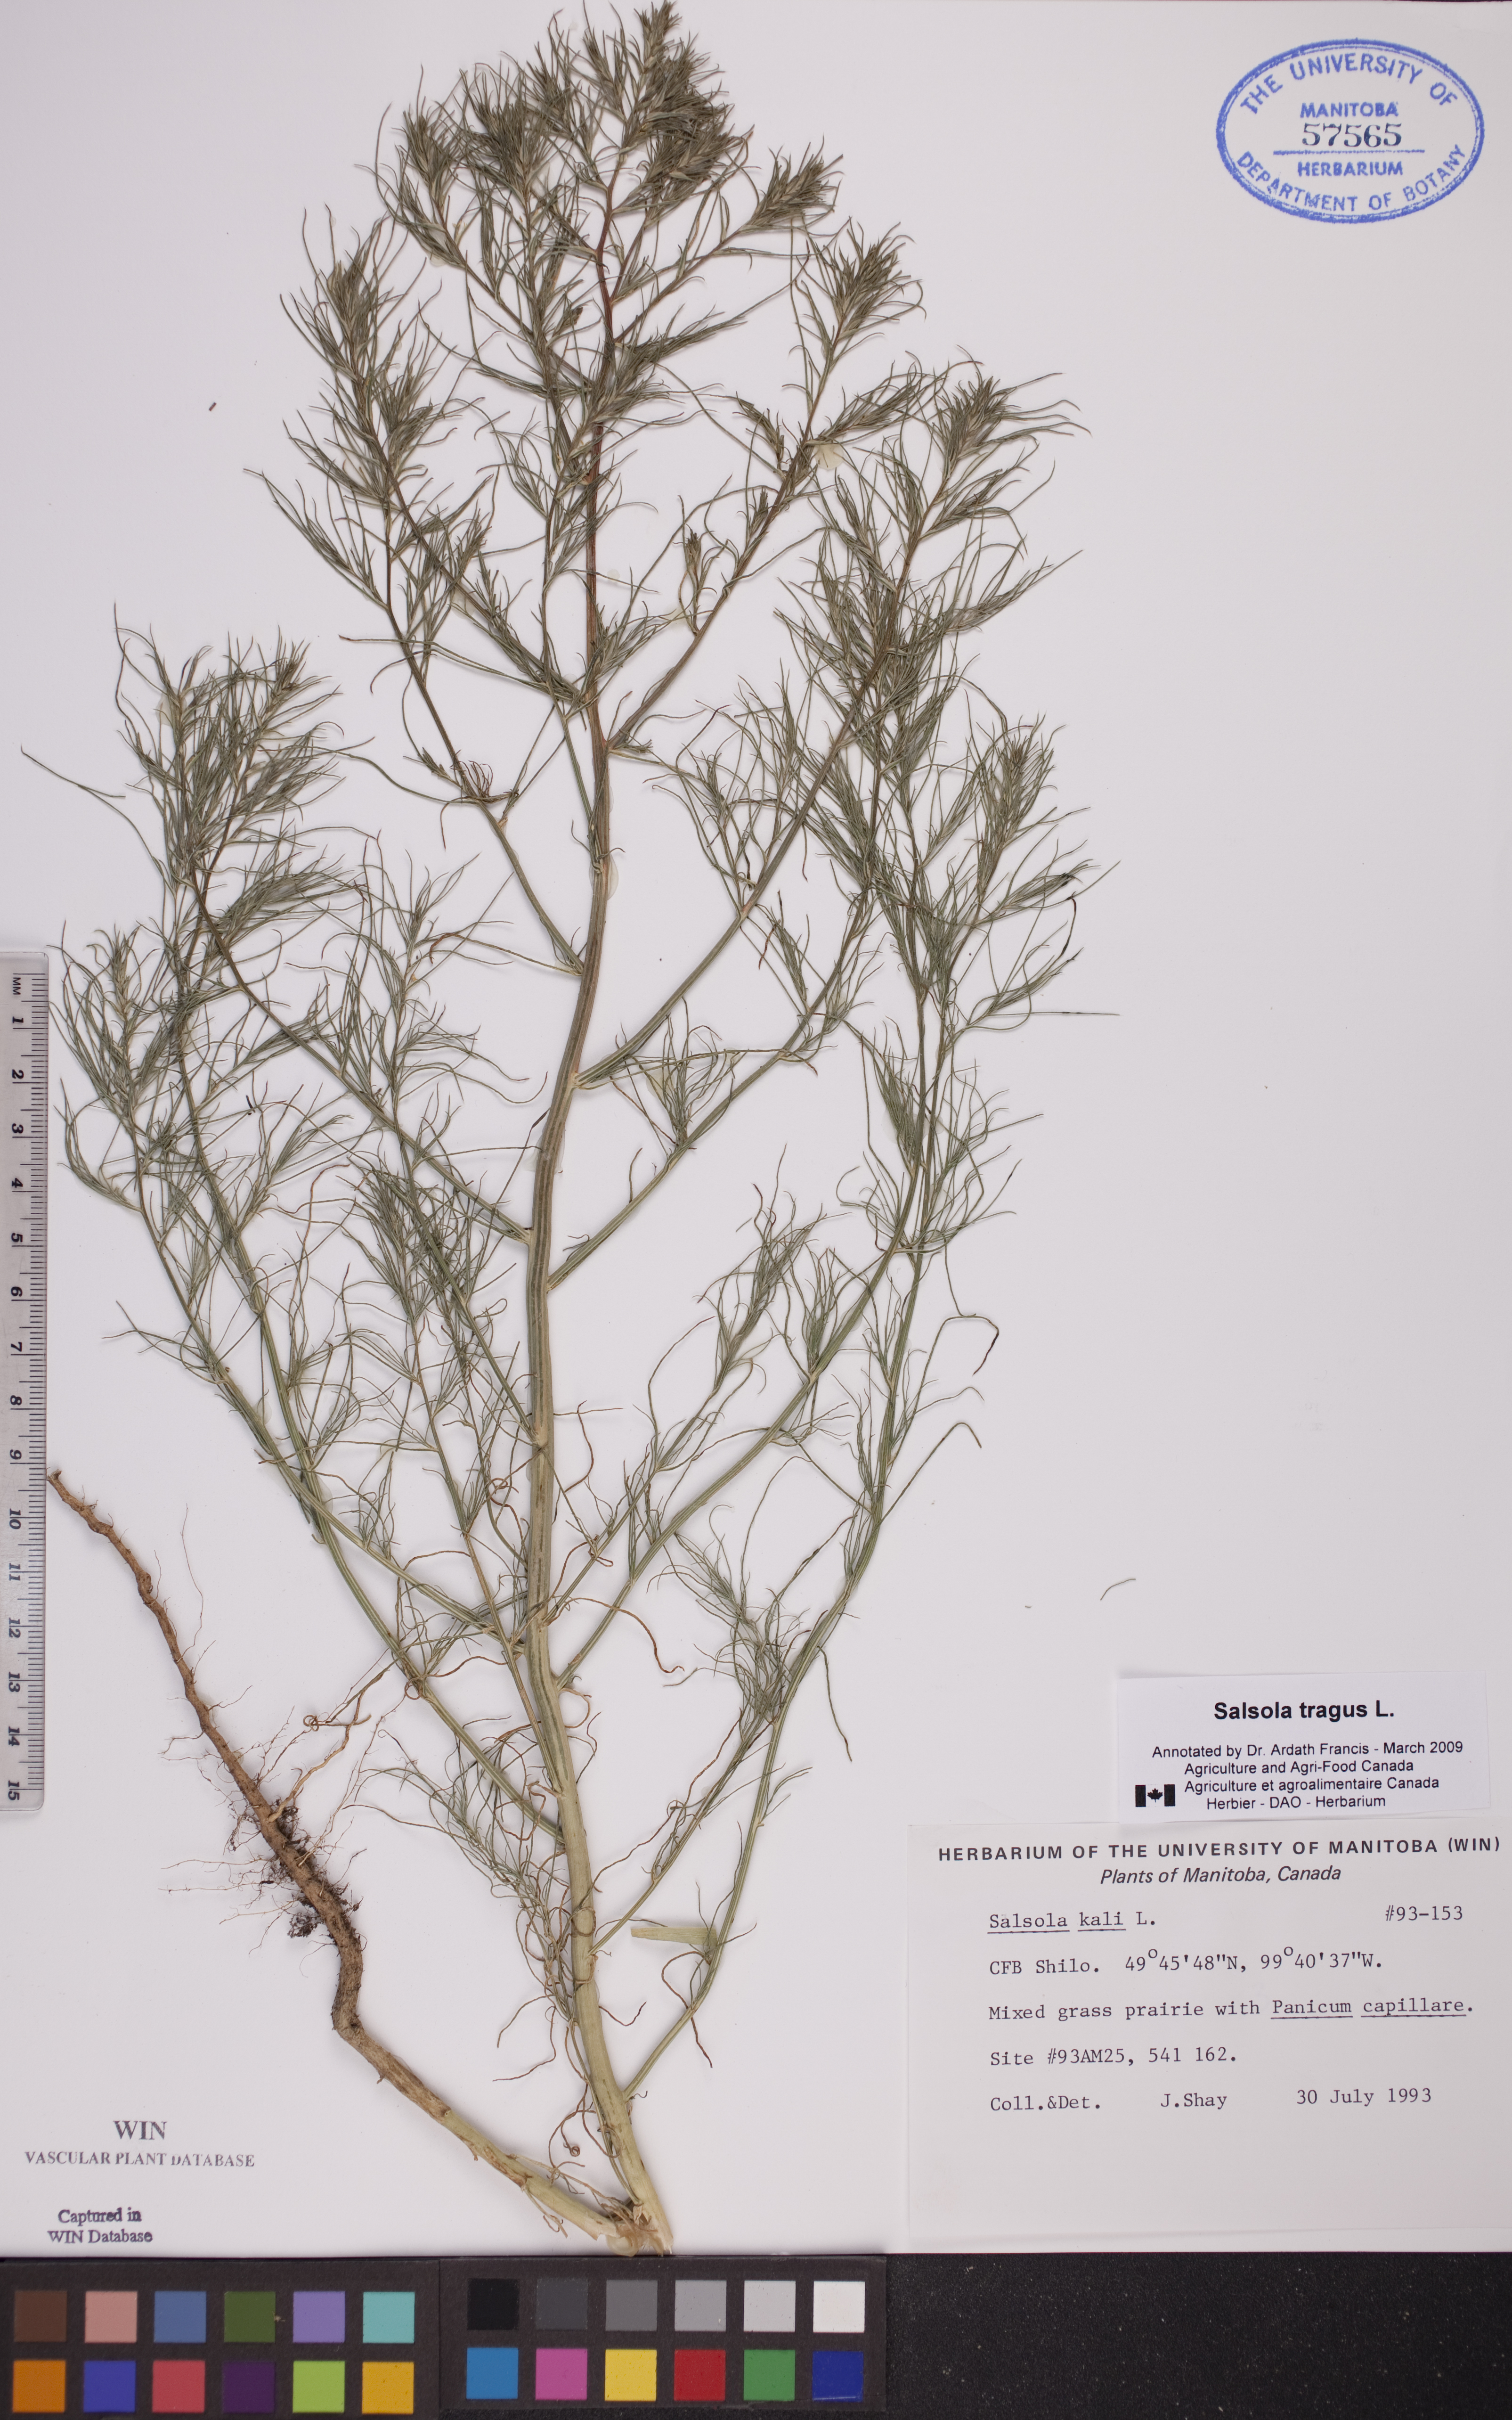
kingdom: Plantae
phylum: Tracheophyta
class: Magnoliopsida
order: Caryophyllales
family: Amaranthaceae
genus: Salsola
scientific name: Salsola tragus
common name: Prickly russian thistle
